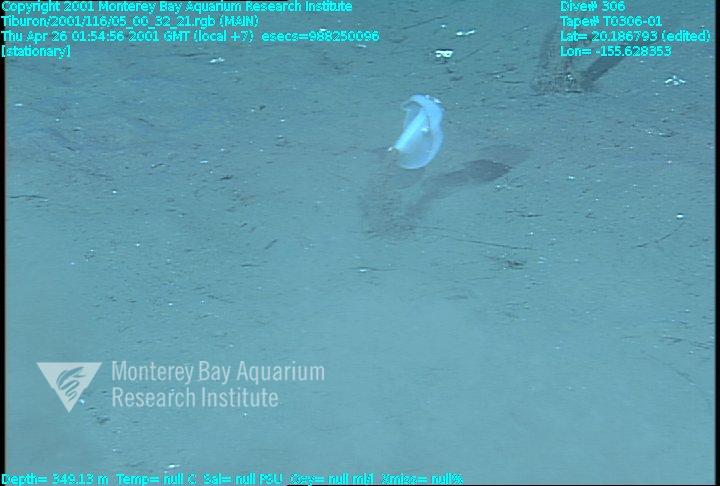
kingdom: Animalia
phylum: Porifera
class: Hexactinellida
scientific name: Hexactinellida
